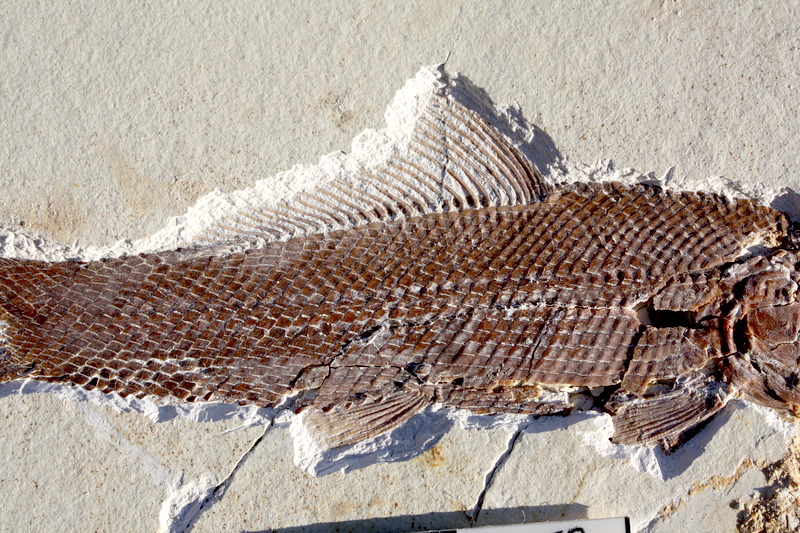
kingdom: Animalia
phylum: Chordata
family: Ophiopsiellidae
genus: Ophiopsiella
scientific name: Ophiopsiella attenuata
